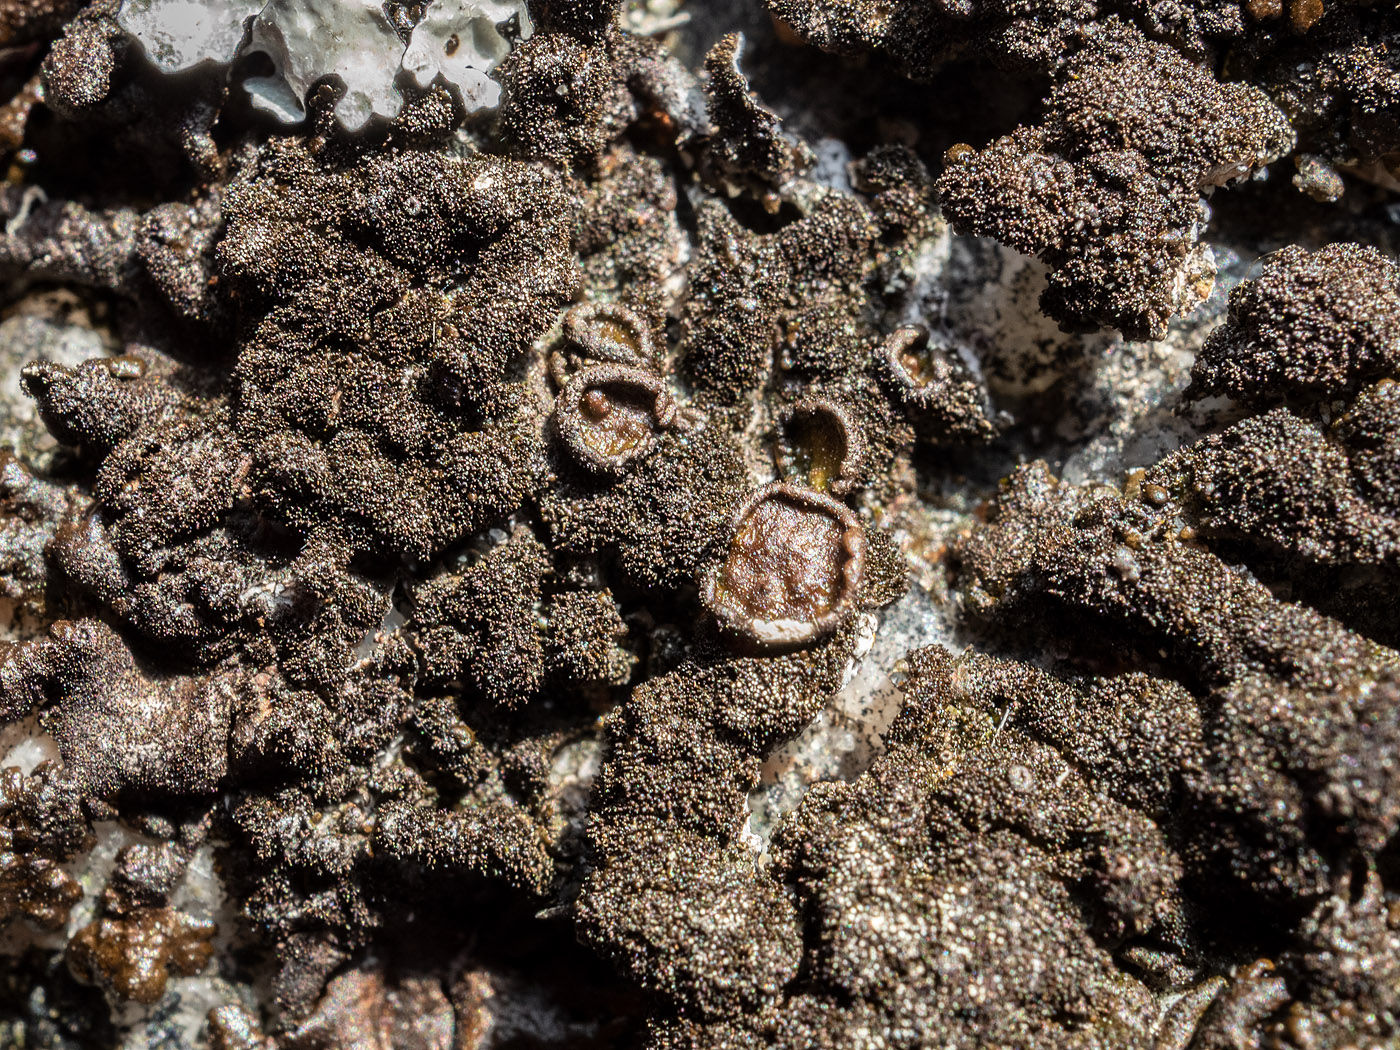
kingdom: Fungi
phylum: Ascomycota
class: Lecanoromycetes
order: Lecanorales
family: Parmeliaceae
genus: Xanthoparmelia
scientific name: Xanthoparmelia verruculifera
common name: småknoppet skållav
